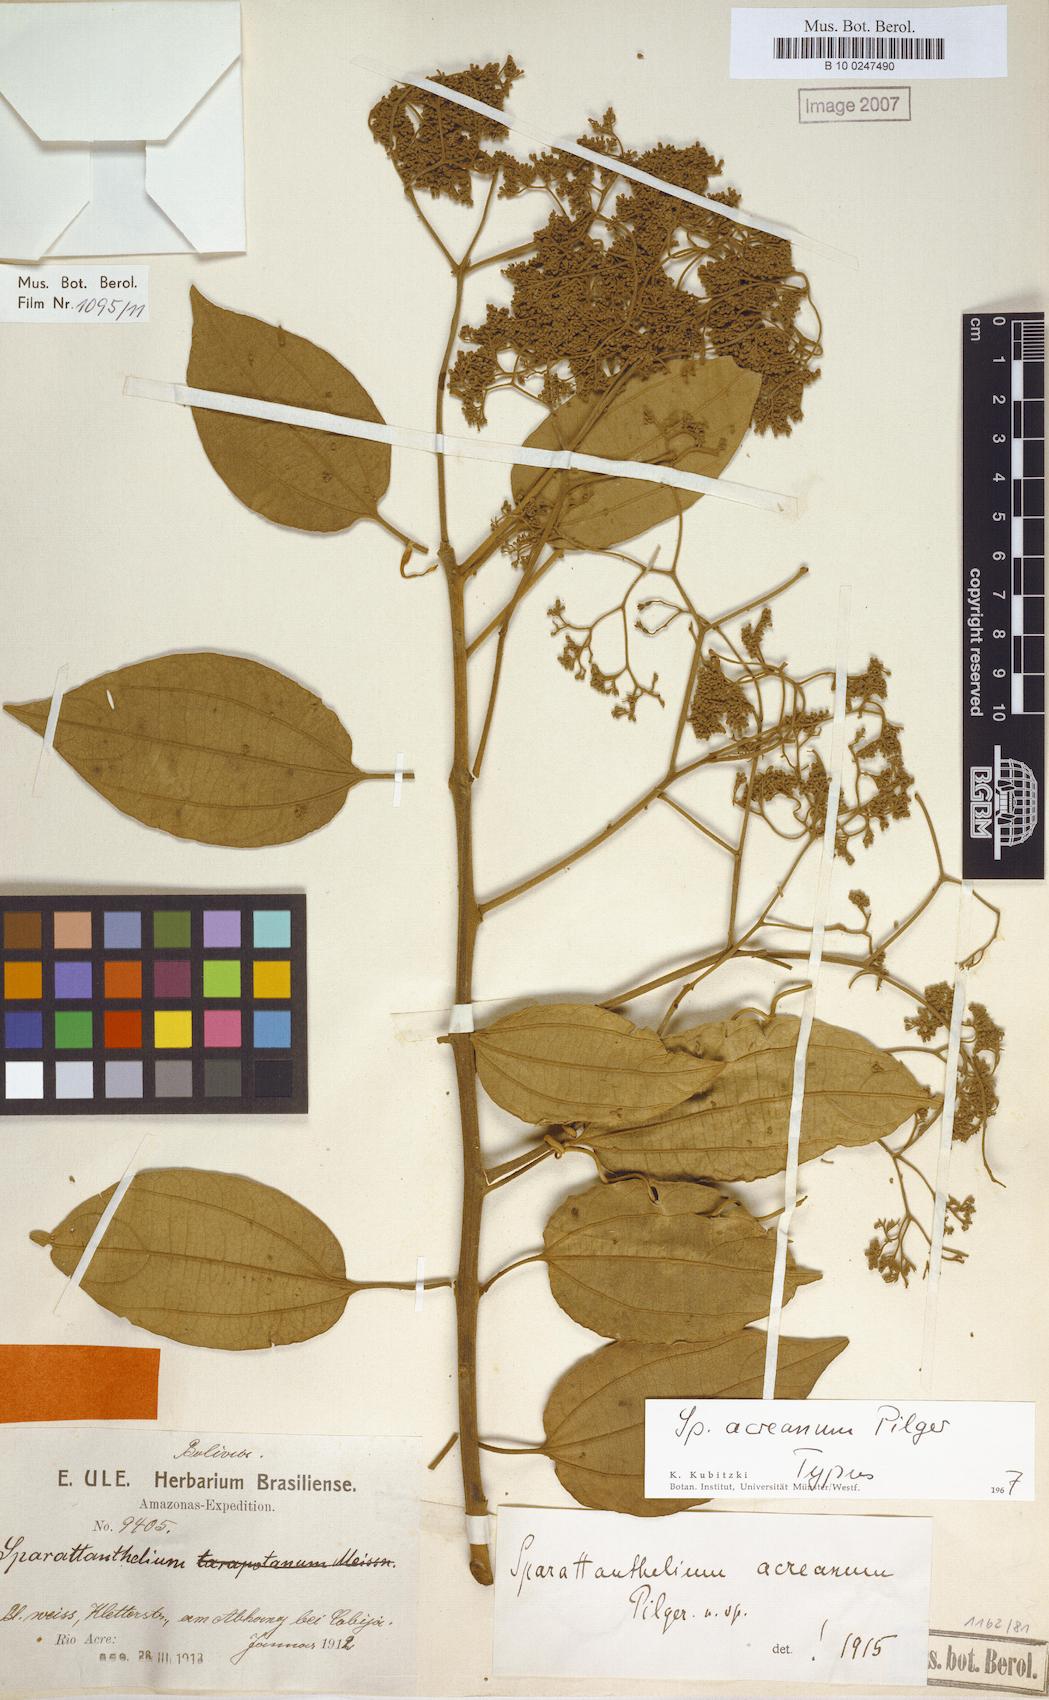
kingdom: Plantae
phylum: Tracheophyta
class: Magnoliopsida
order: Laurales
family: Hernandiaceae
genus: Sparattanthelium
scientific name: Sparattanthelium acreanum
